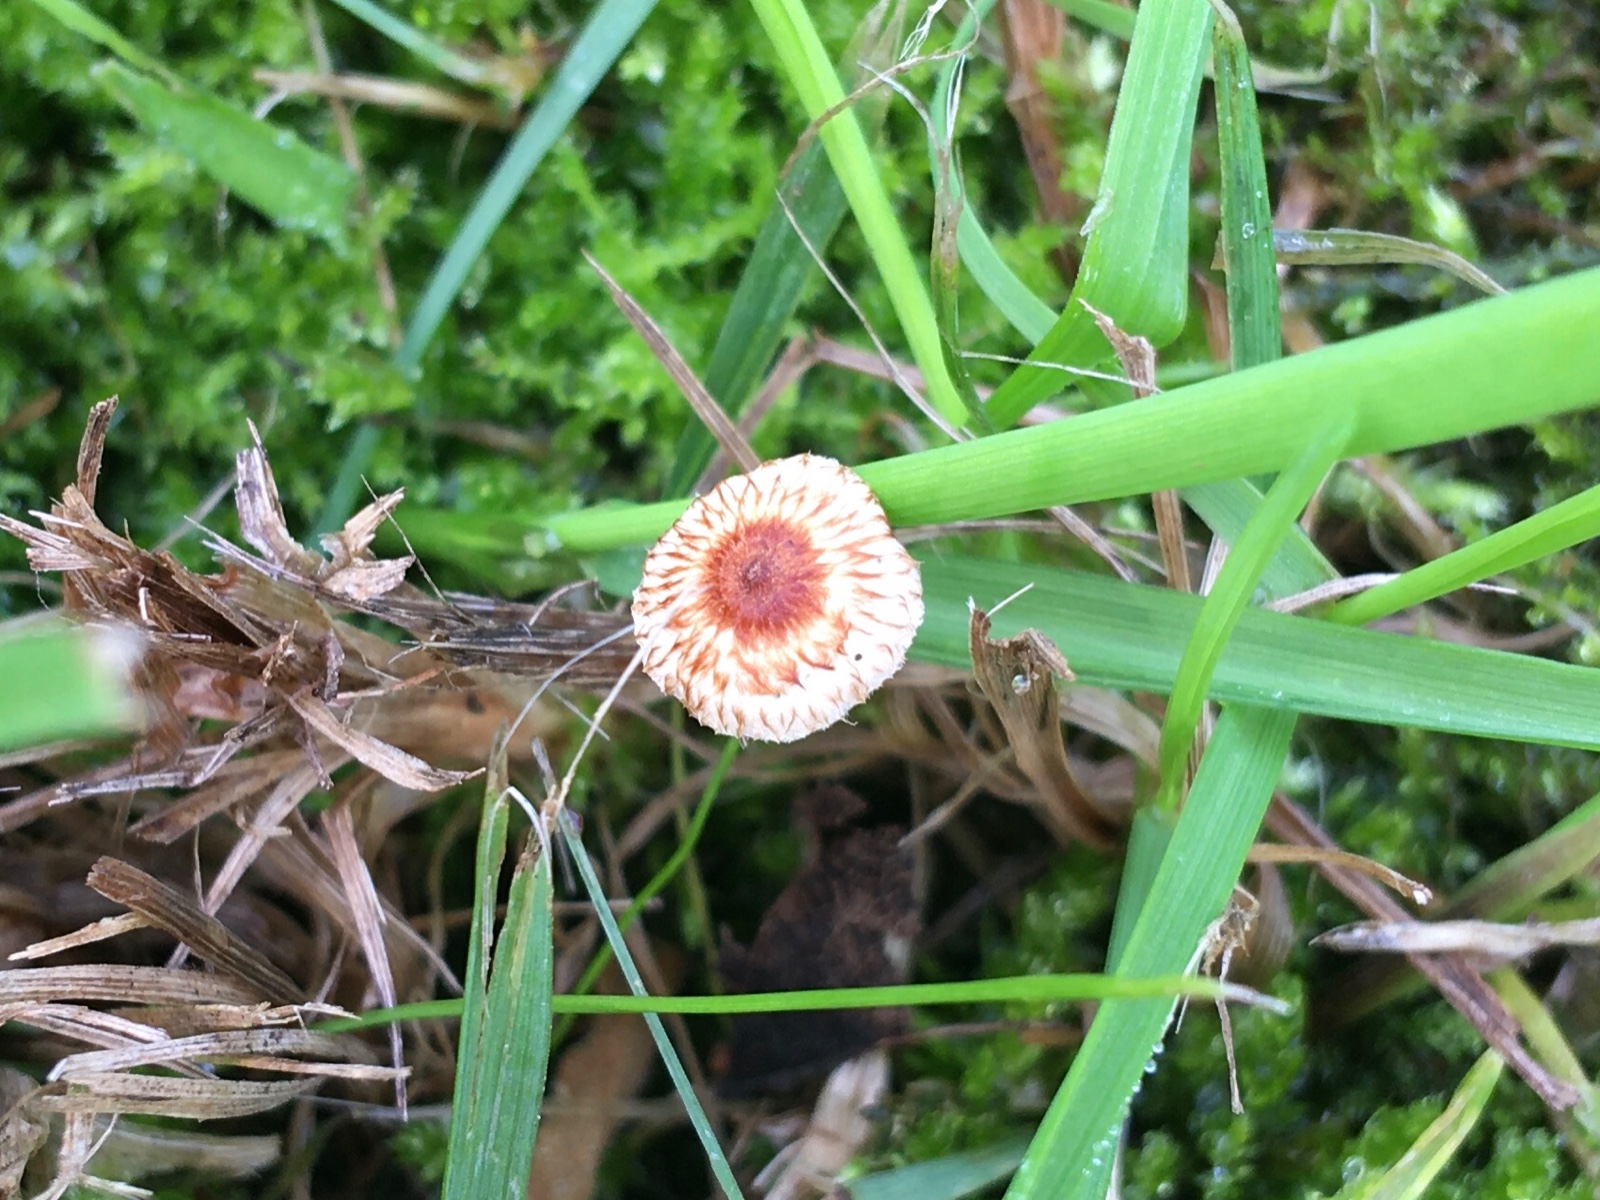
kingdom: Fungi
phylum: Basidiomycota
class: Agaricomycetes
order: Agaricales
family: Marasmiaceae
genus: Crinipellis
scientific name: Crinipellis scabella
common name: børstefod
